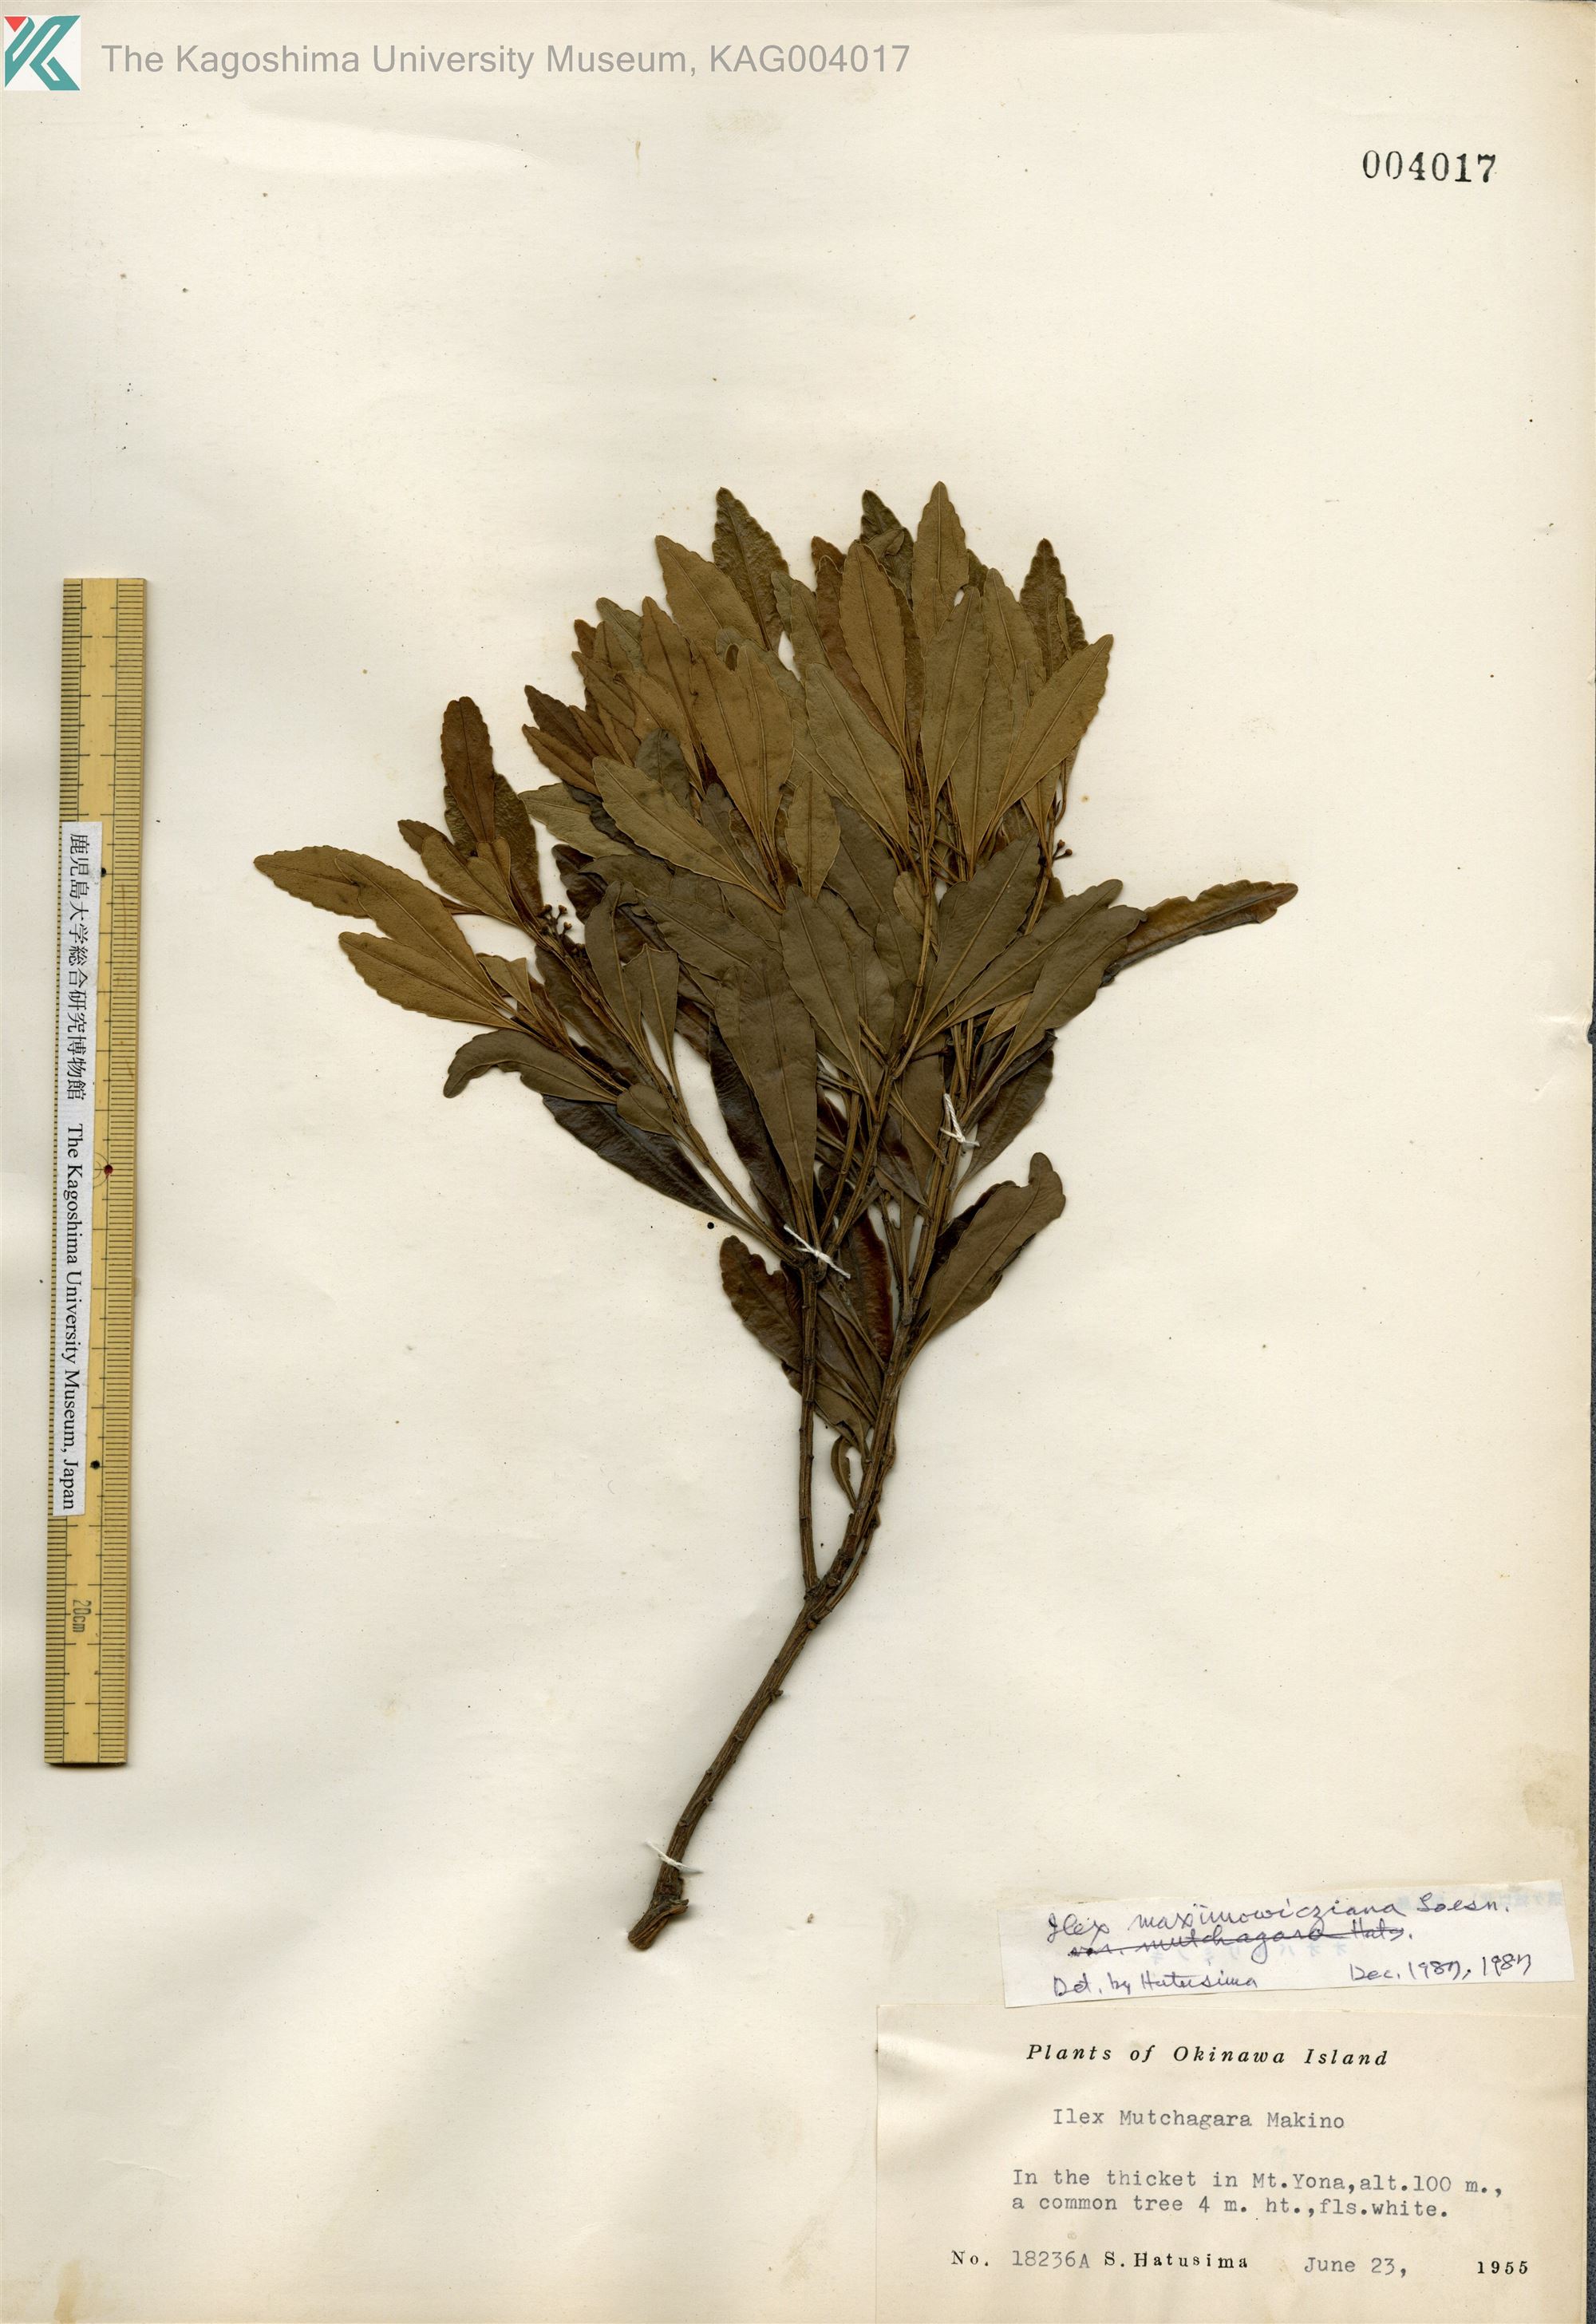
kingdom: Plantae
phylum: Tracheophyta
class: Magnoliopsida
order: Aquifoliales
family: Aquifoliaceae
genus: Ilex
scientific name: Ilex maximowicziana
